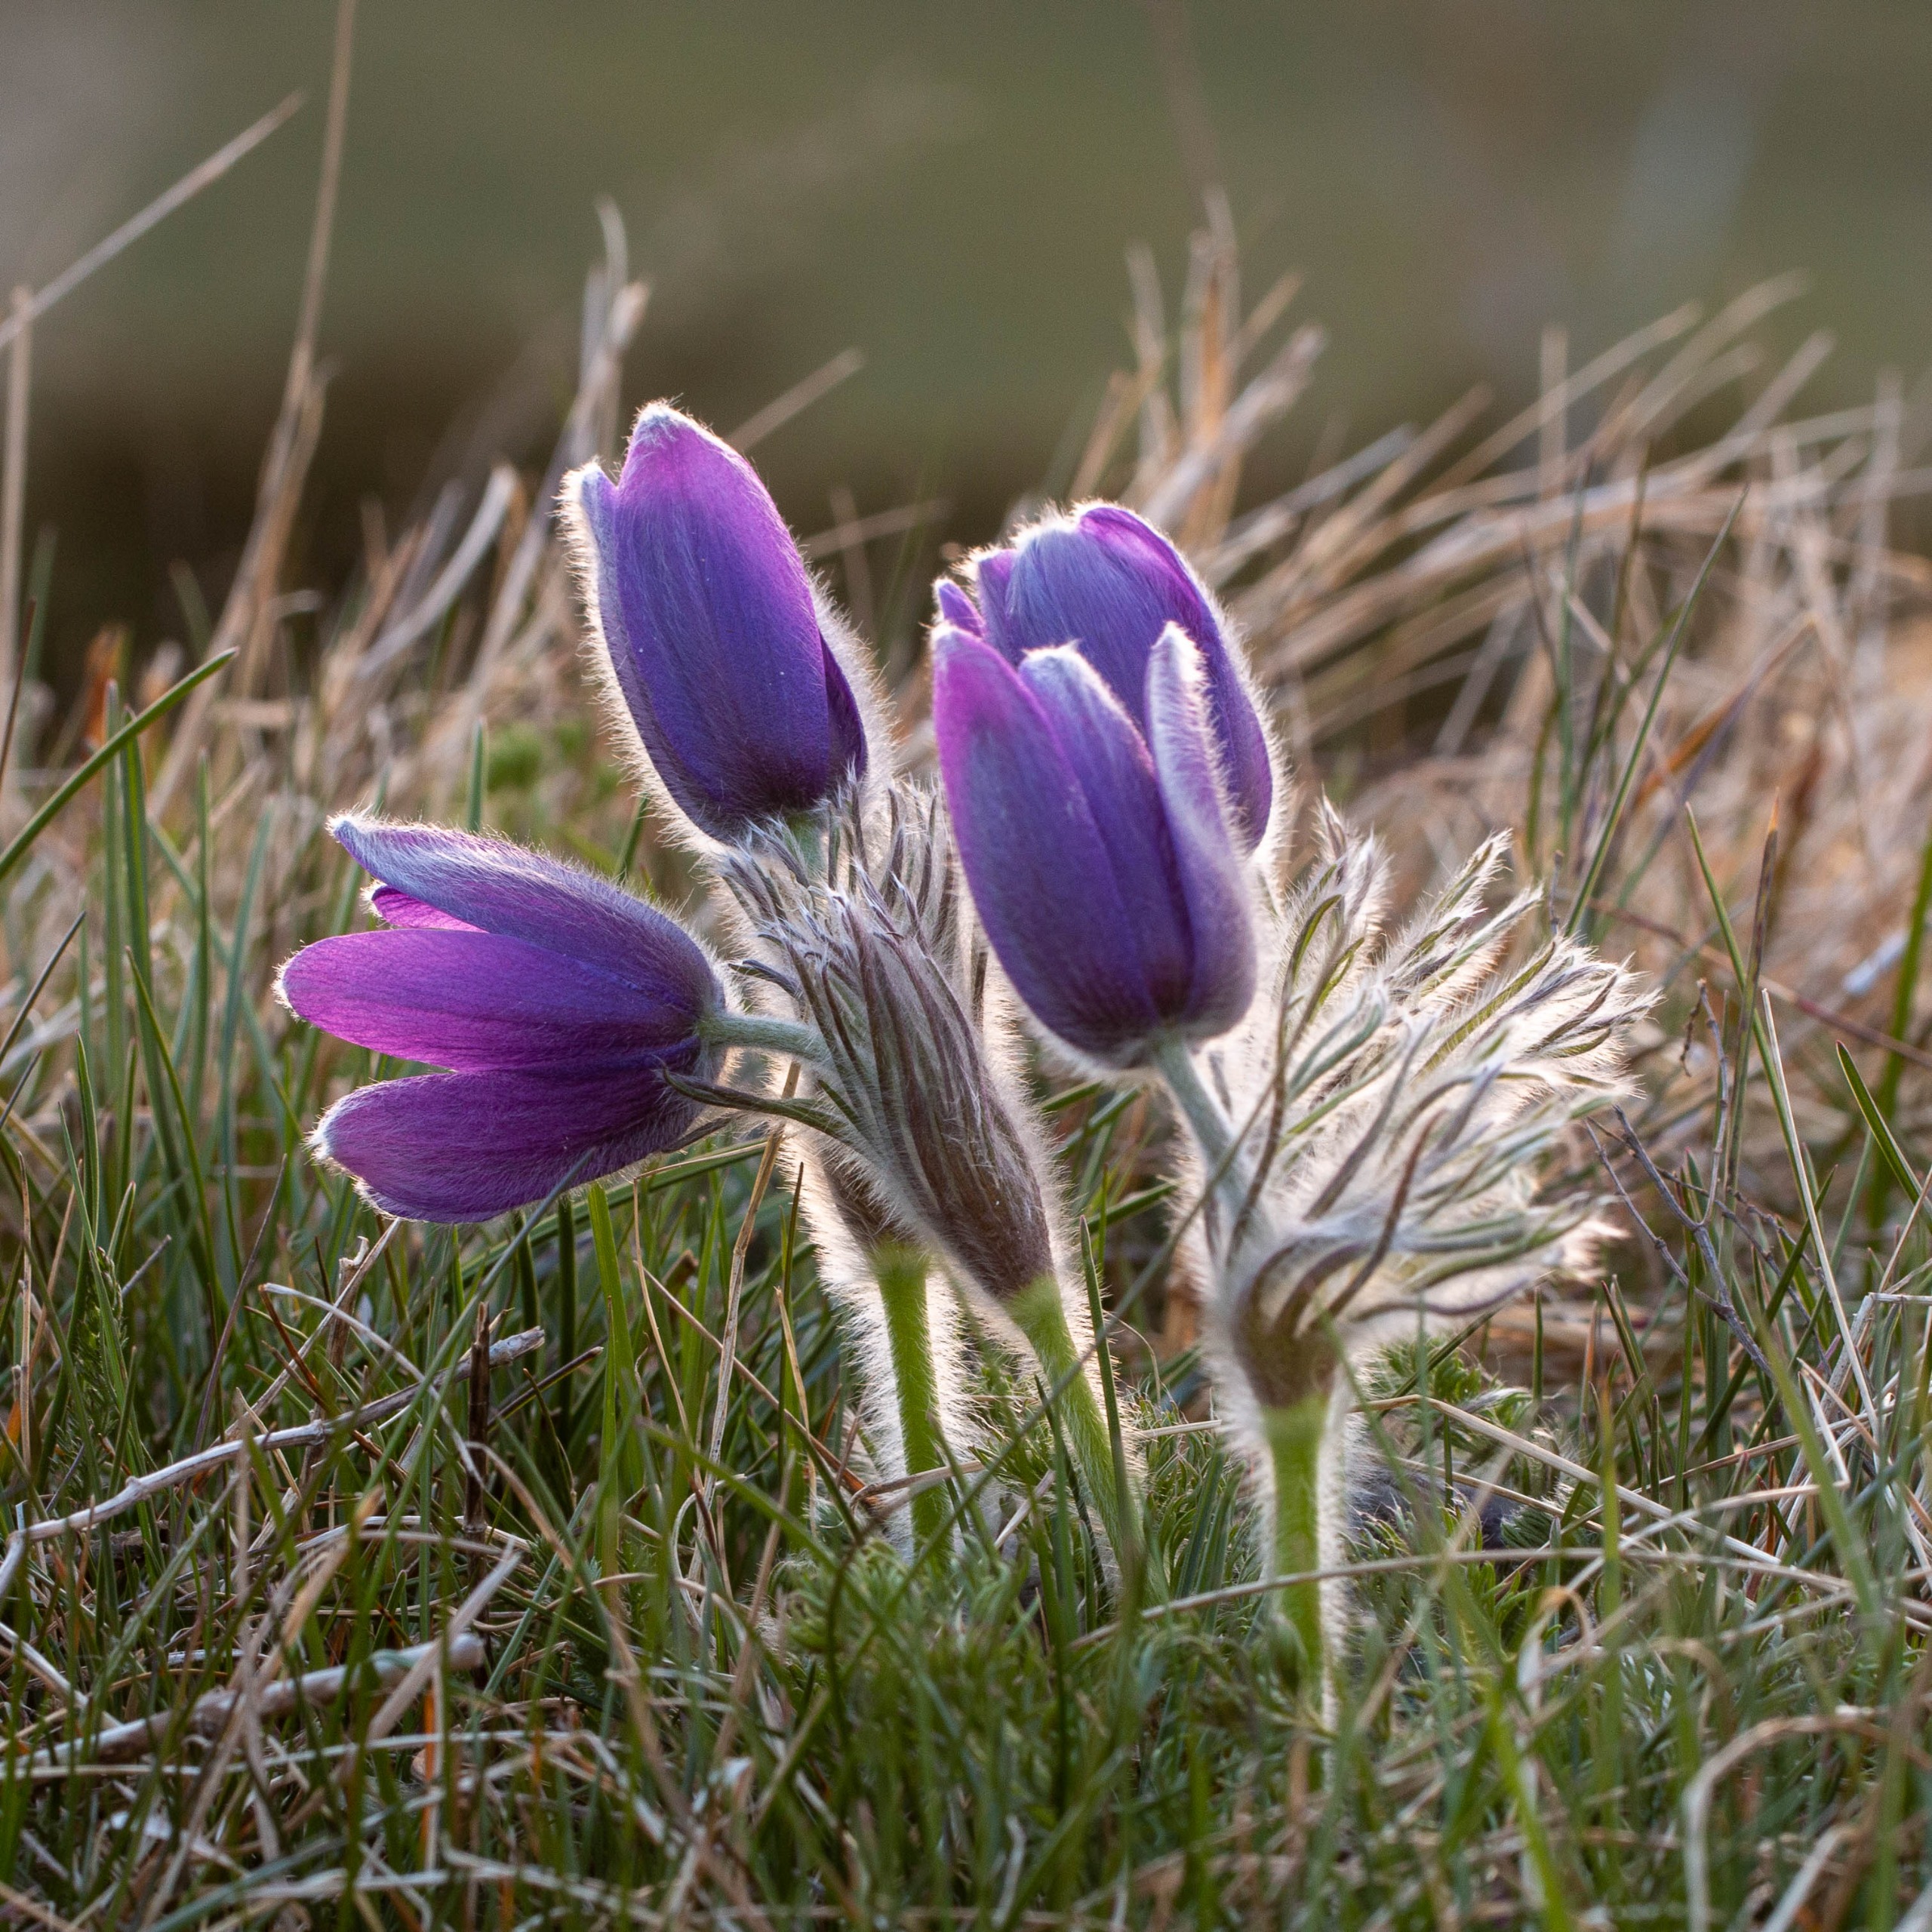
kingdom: Plantae
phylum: Tracheophyta
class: Magnoliopsida
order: Ranunculales
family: Ranunculaceae
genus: Pulsatilla
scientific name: Pulsatilla vulgaris
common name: Opret kobjælde
